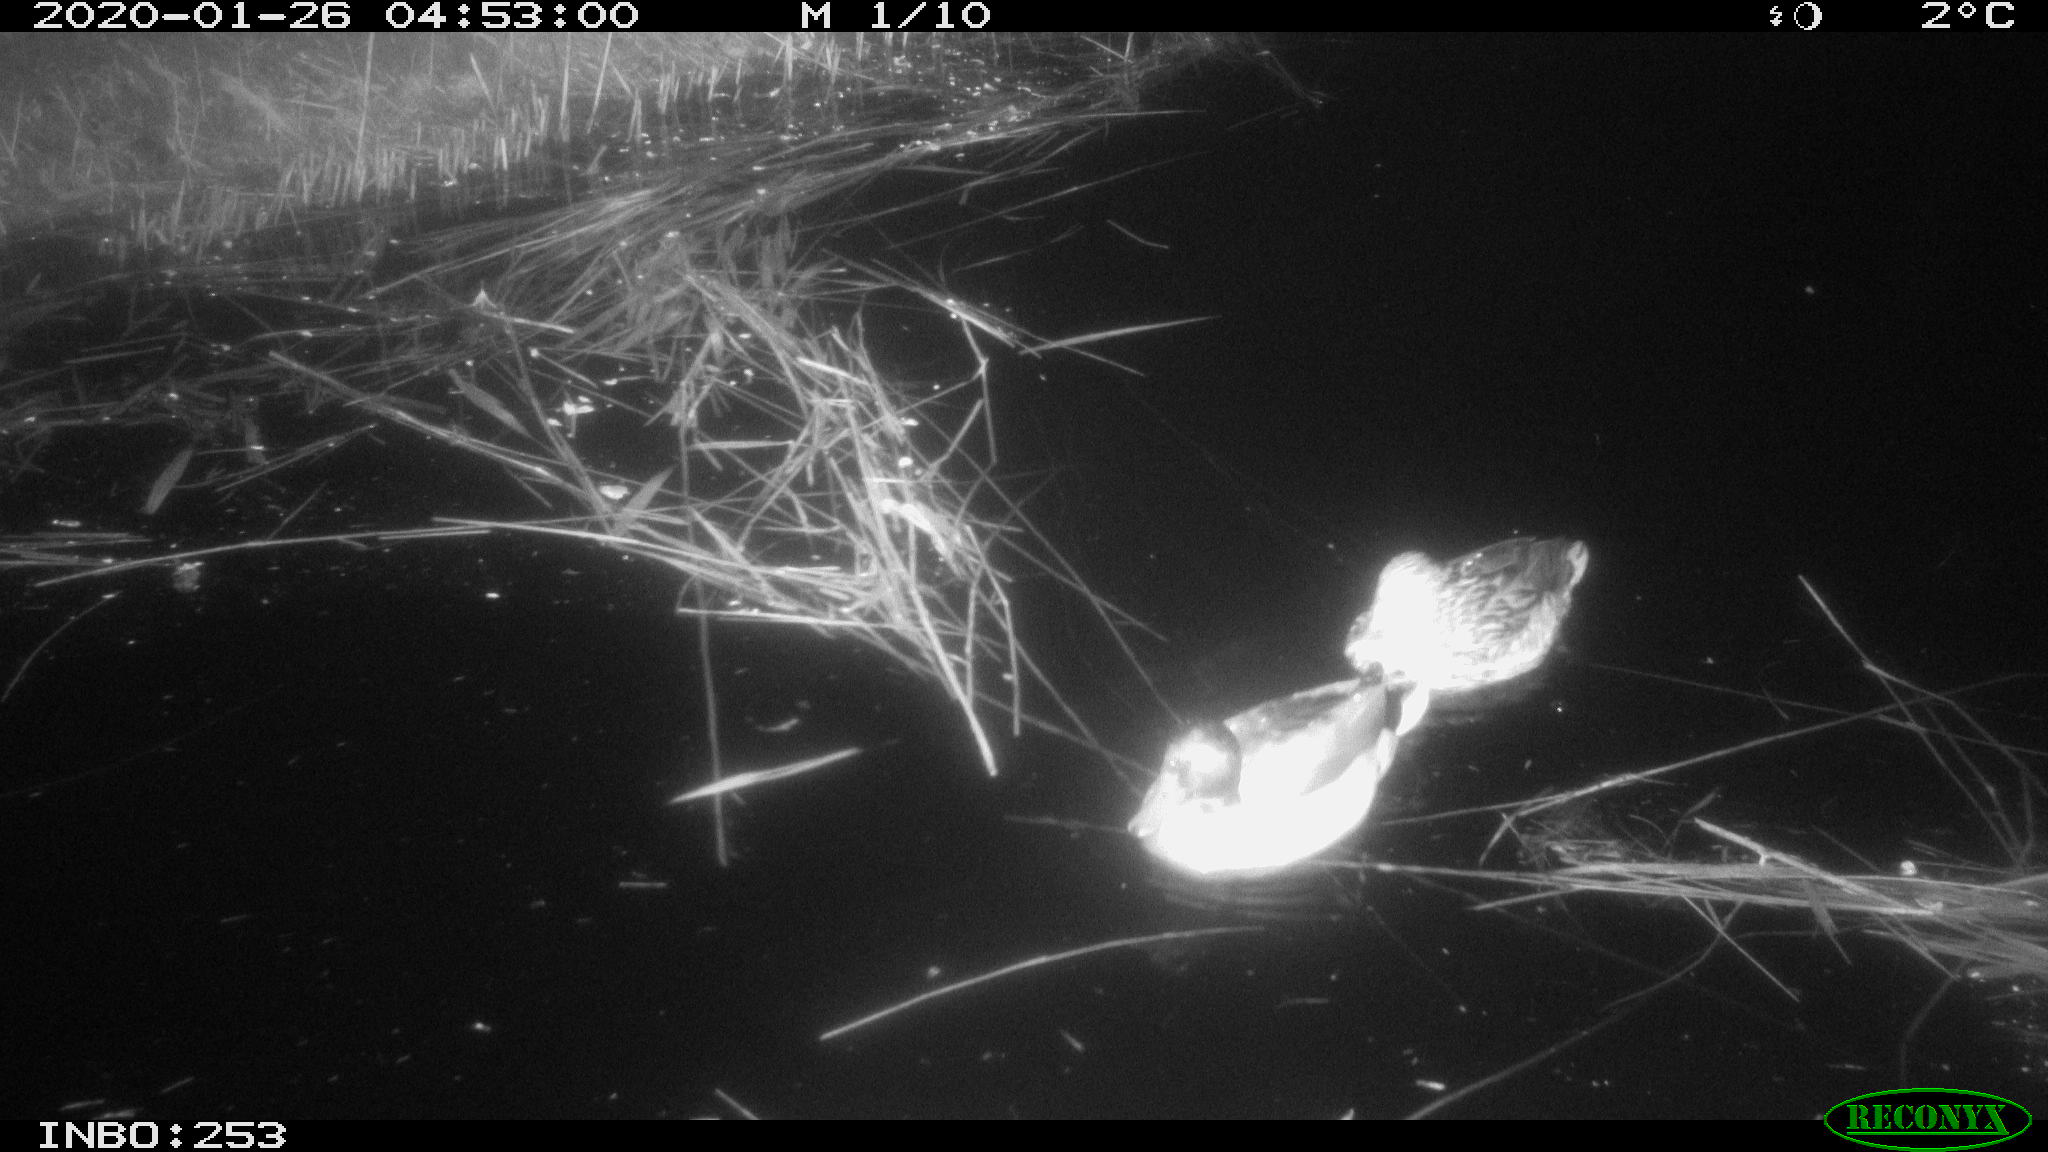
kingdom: Animalia
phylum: Chordata
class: Aves
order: Anseriformes
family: Anatidae
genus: Anas
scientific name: Anas platyrhynchos
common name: Mallard
